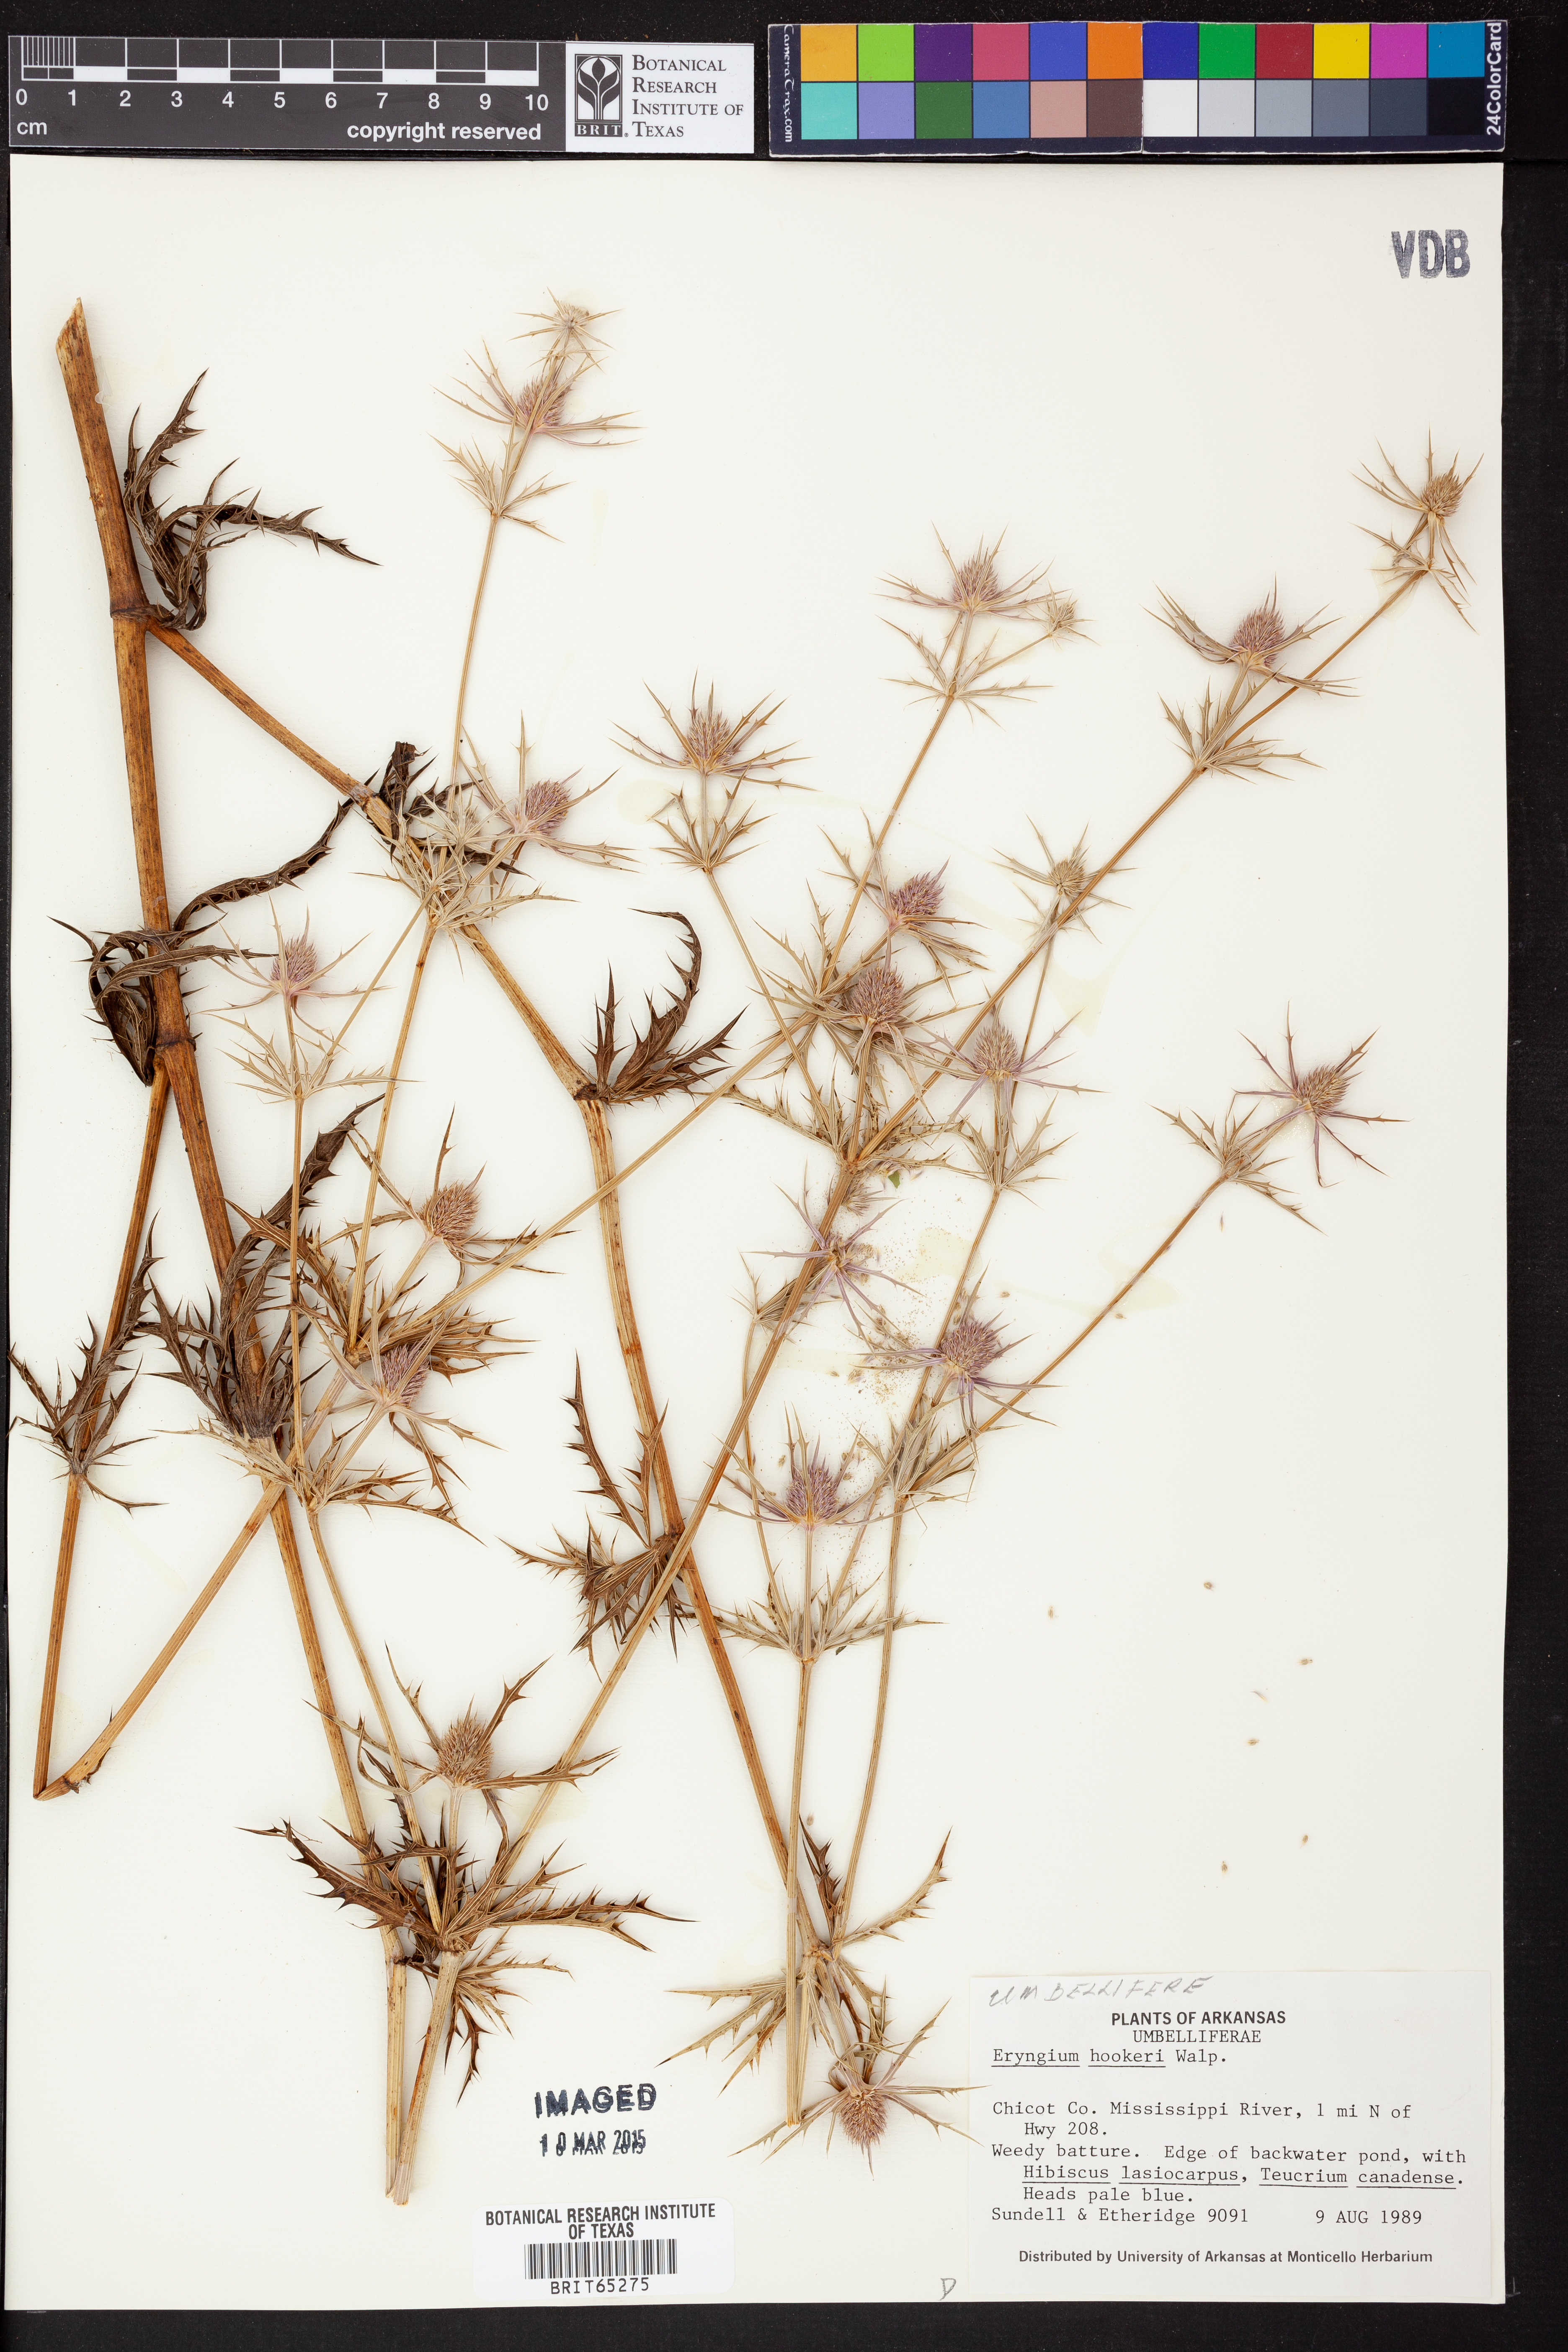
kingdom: Plantae
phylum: Tracheophyta
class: Magnoliopsida
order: Apiales
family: Apiaceae
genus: Eryngium
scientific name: Eryngium hookeri
